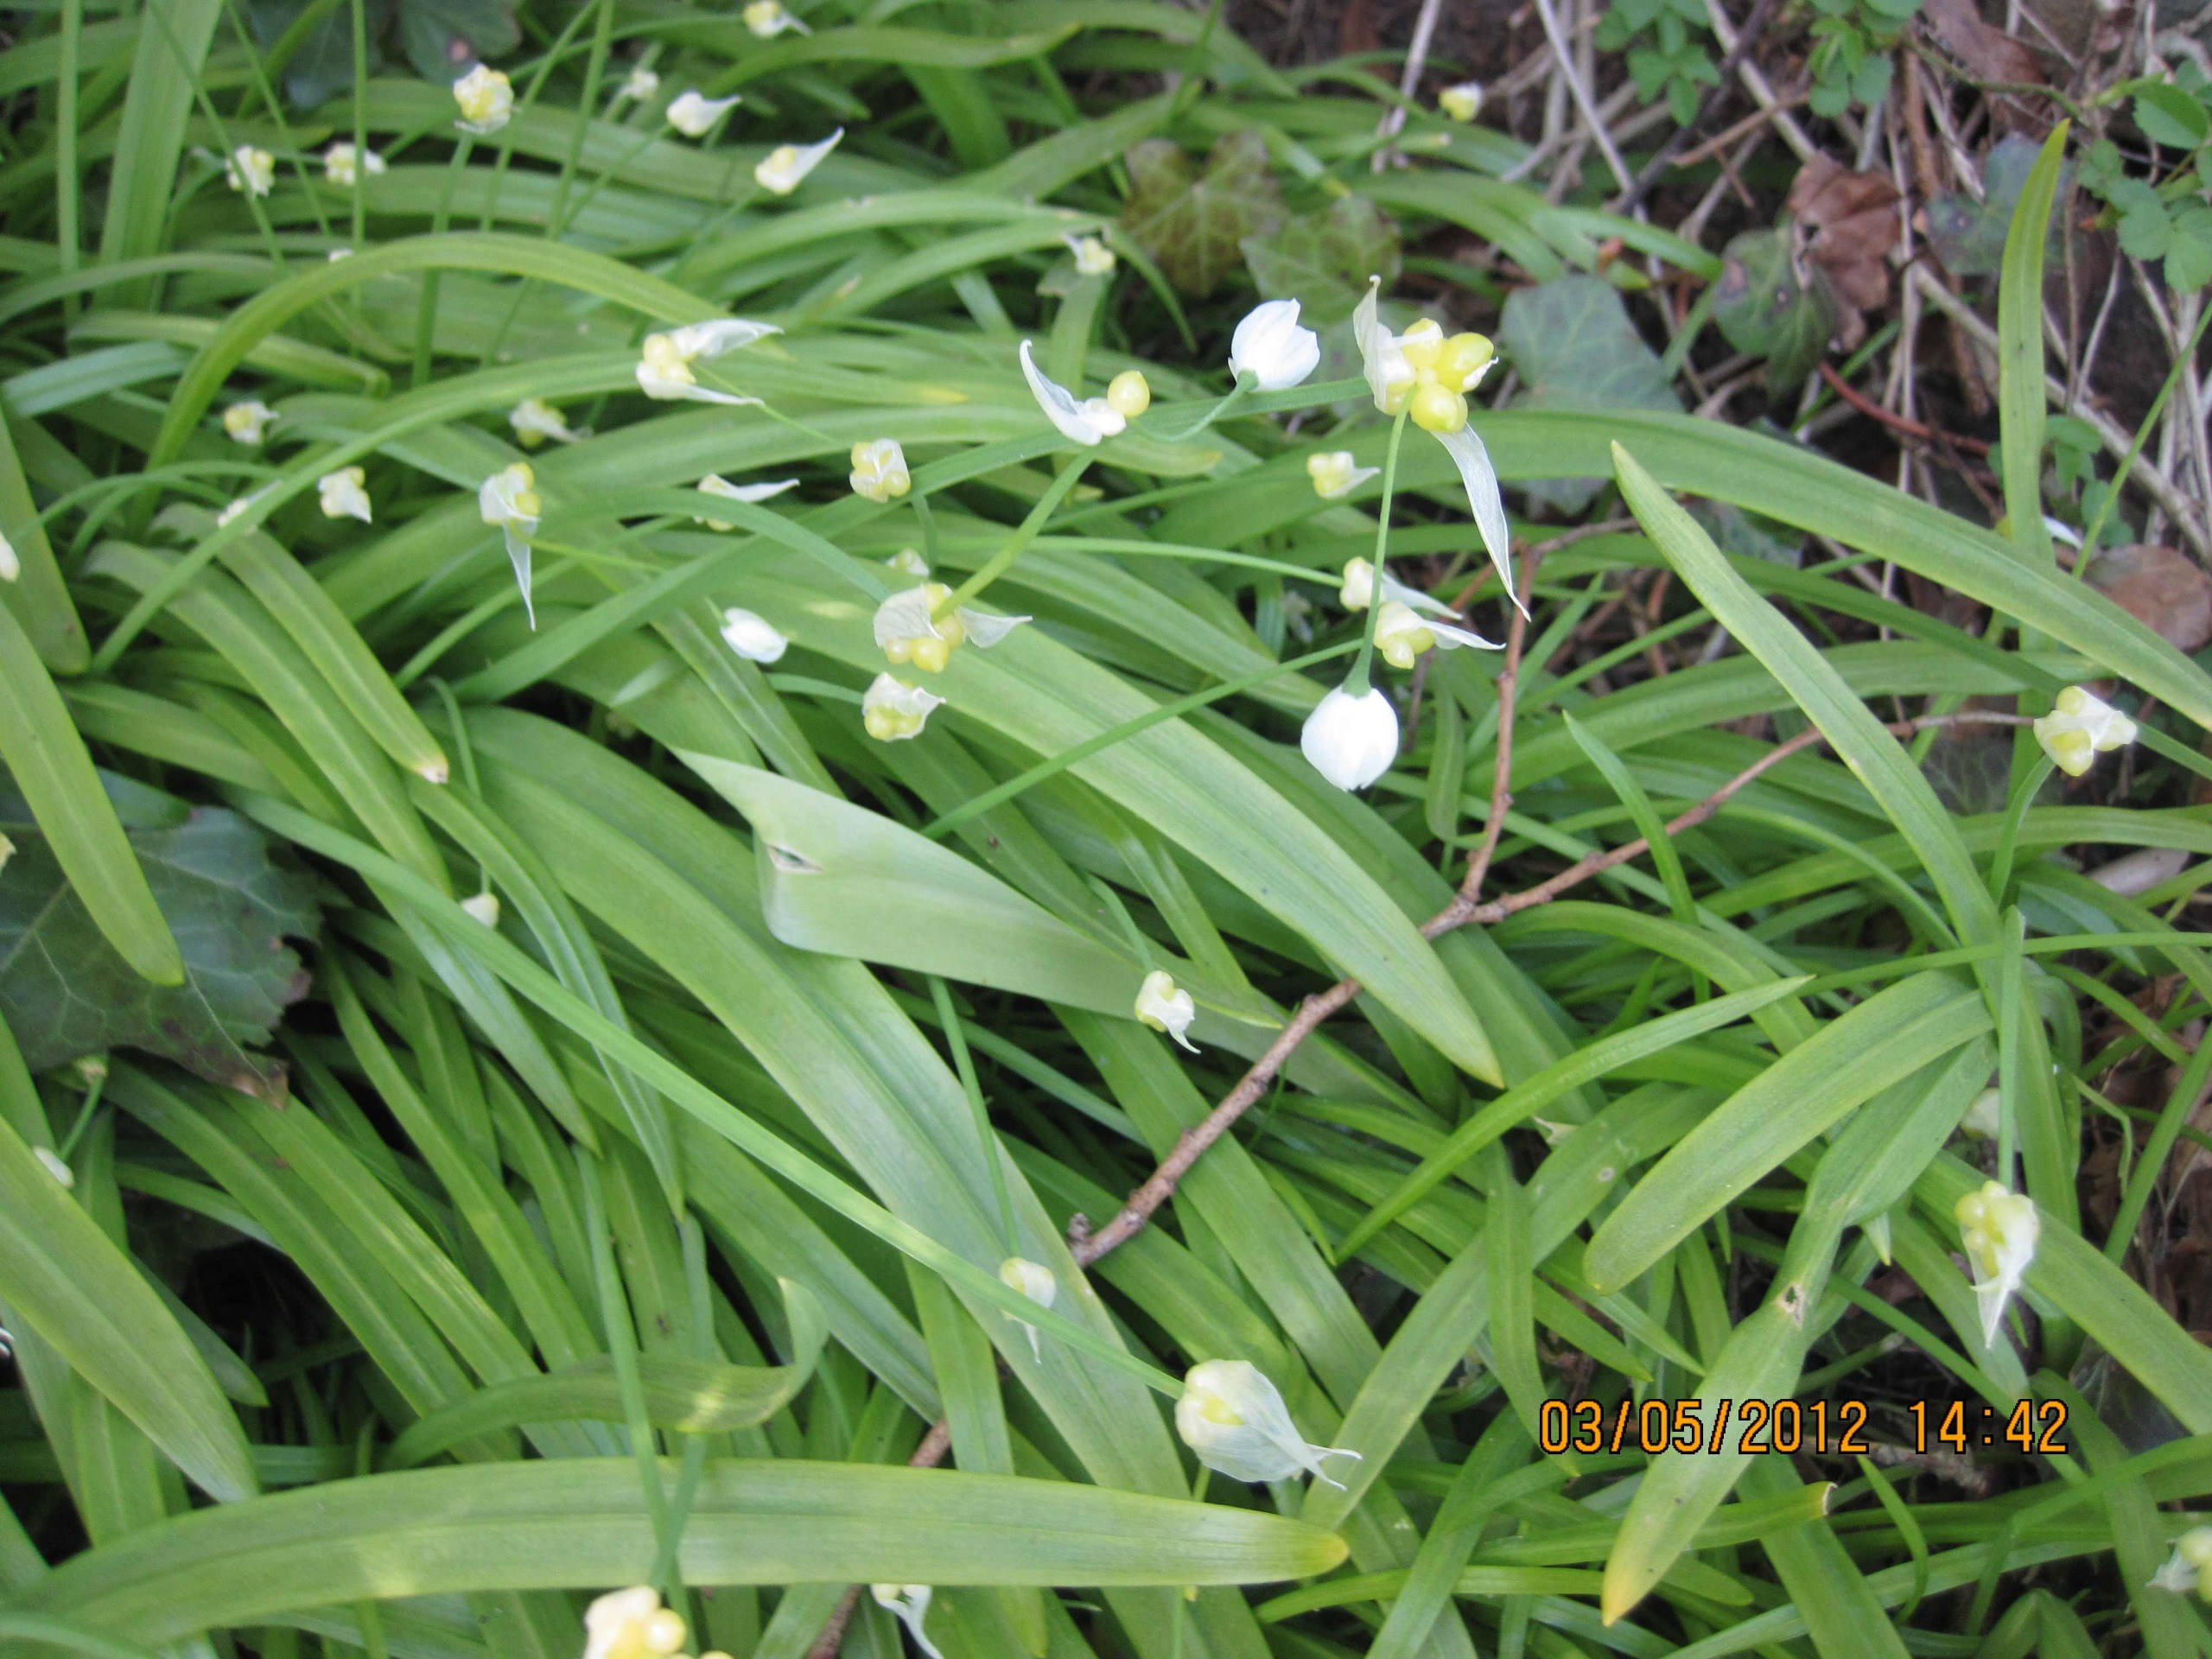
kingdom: Plantae
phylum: Tracheophyta
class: Liliopsida
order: Asparagales
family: Amaryllidaceae
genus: Allium
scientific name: Allium paradoxum
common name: Spøjs løg
